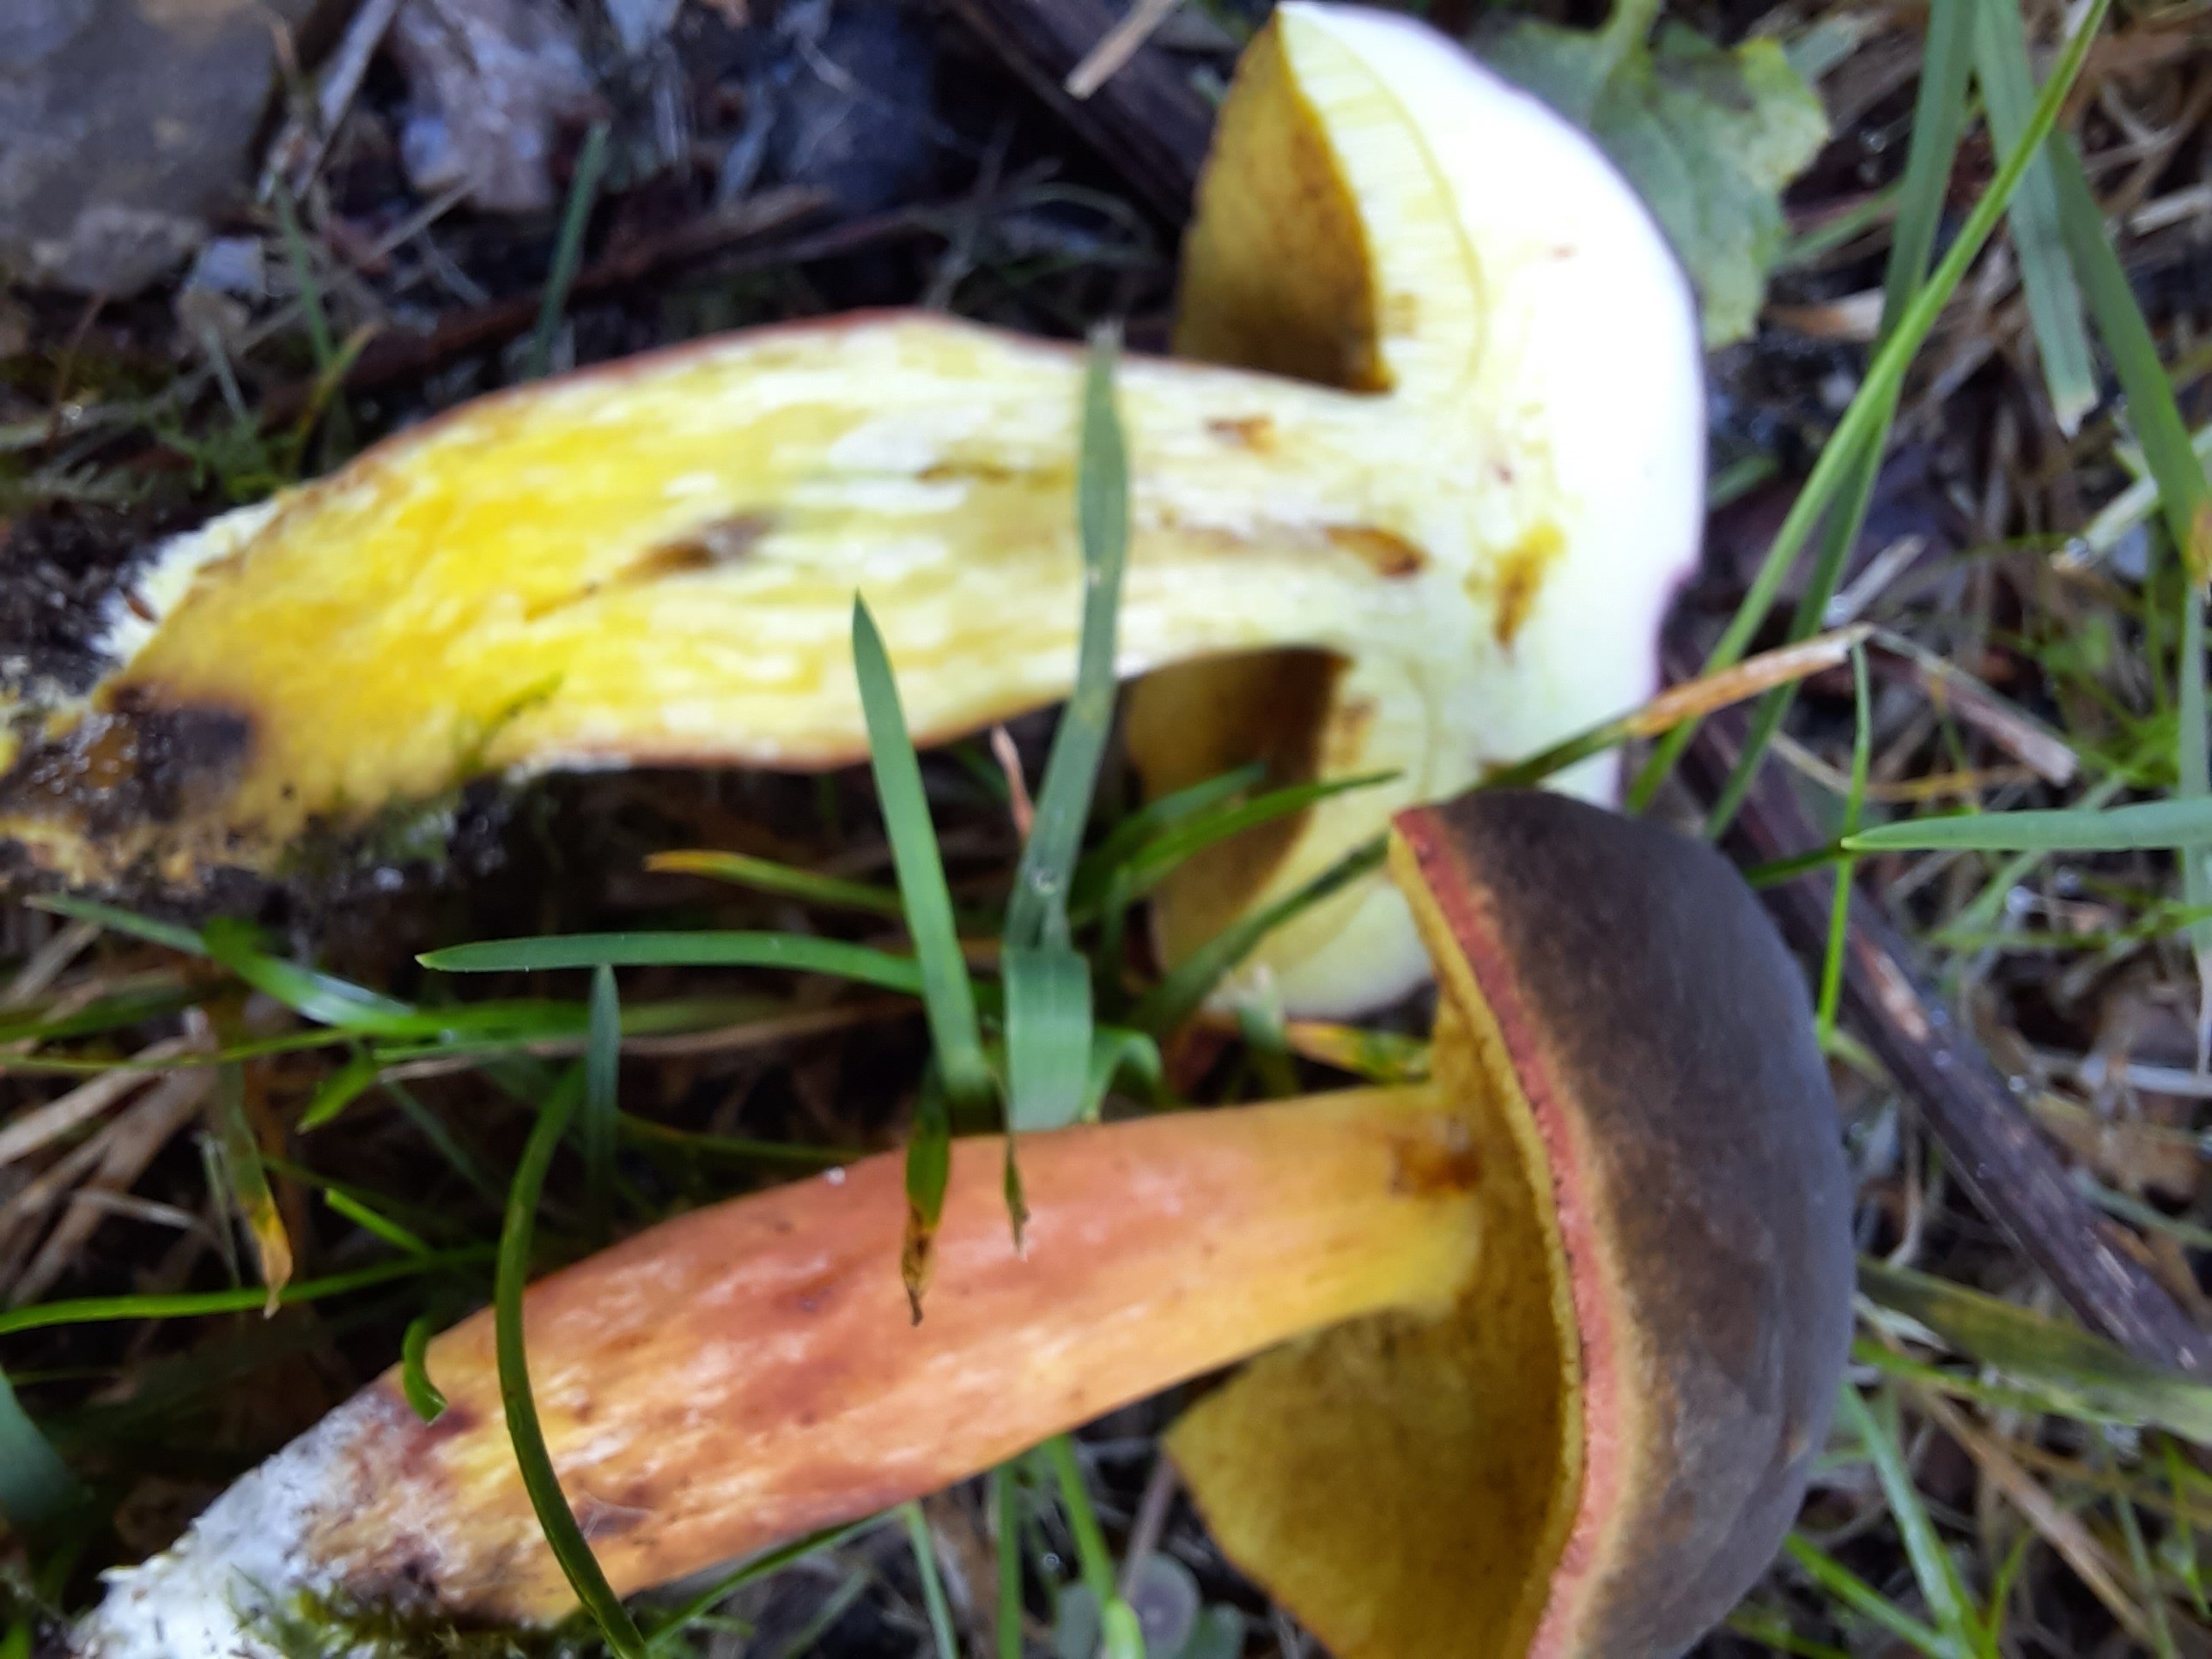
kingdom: Fungi
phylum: Basidiomycota
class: Agaricomycetes
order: Boletales
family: Boletaceae
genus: Xerocomellus
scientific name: Xerocomellus pruinatus
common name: dugget rørhat
